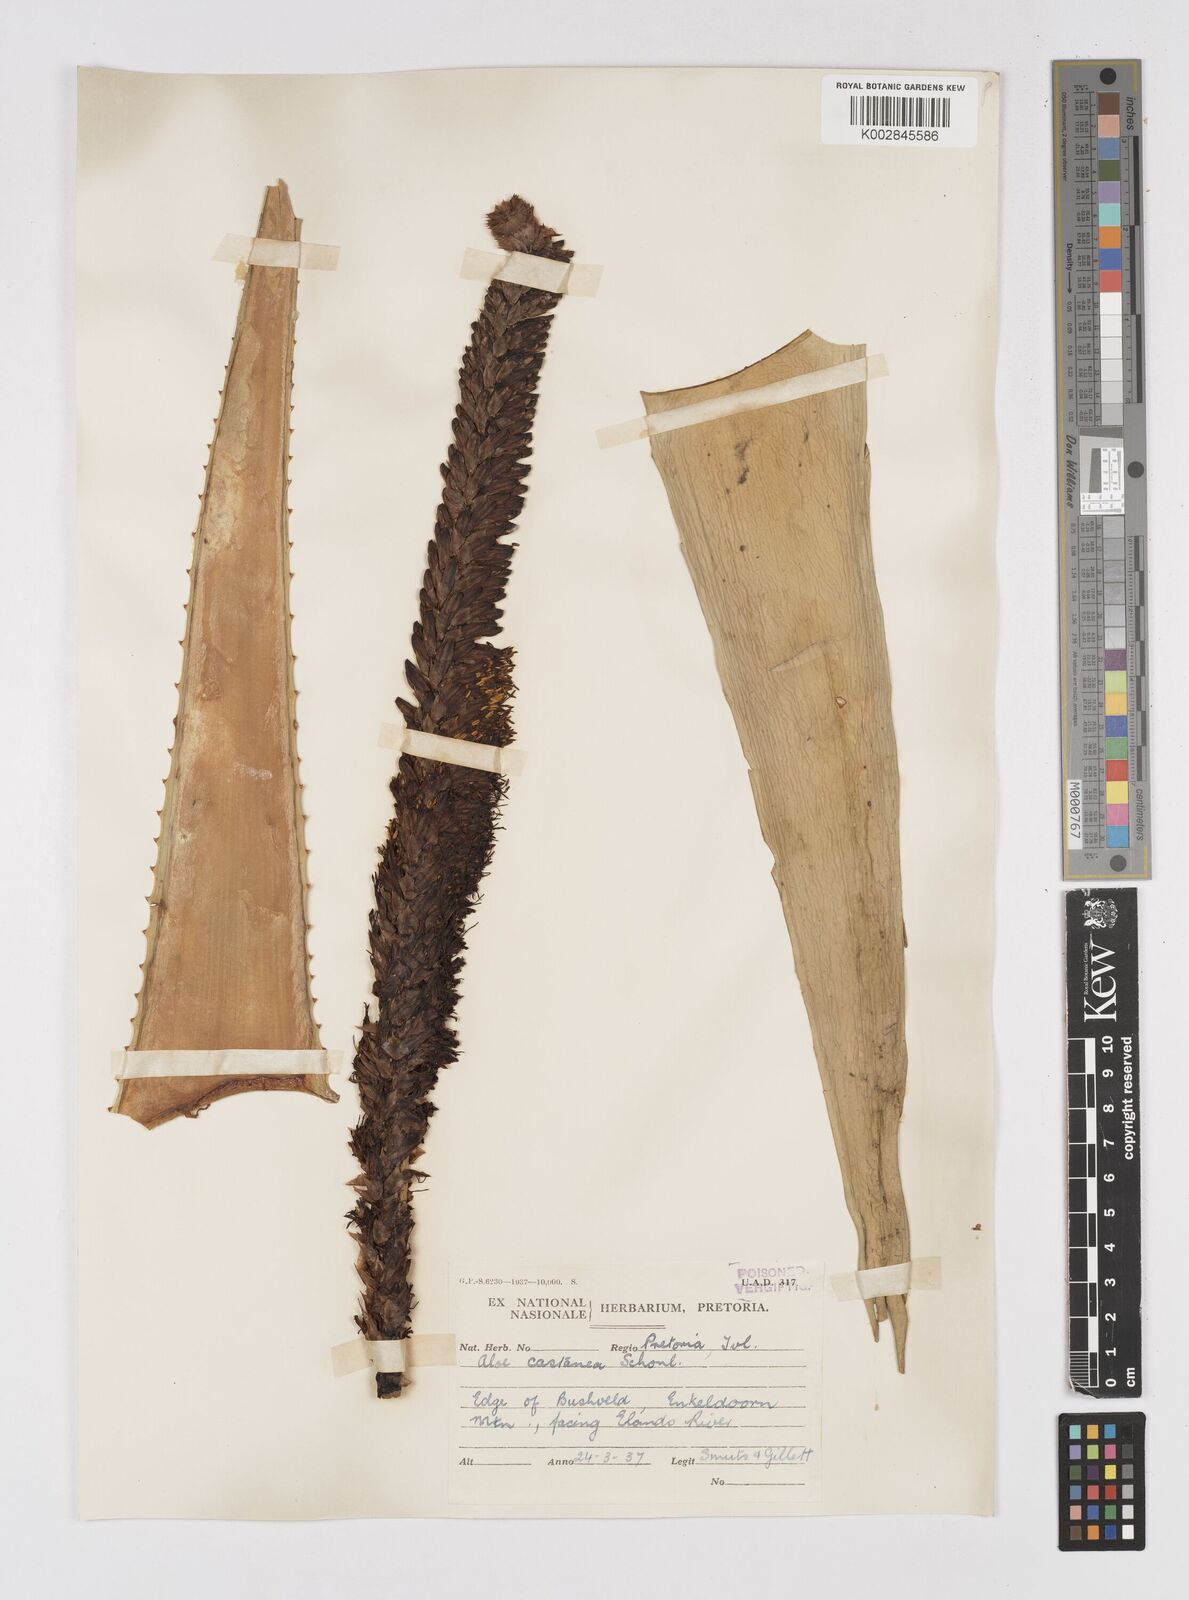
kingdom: Plantae
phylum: Tracheophyta
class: Liliopsida
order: Asparagales
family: Asphodelaceae
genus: Aloe
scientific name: Aloe castanea
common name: Cat's-tail aloe
